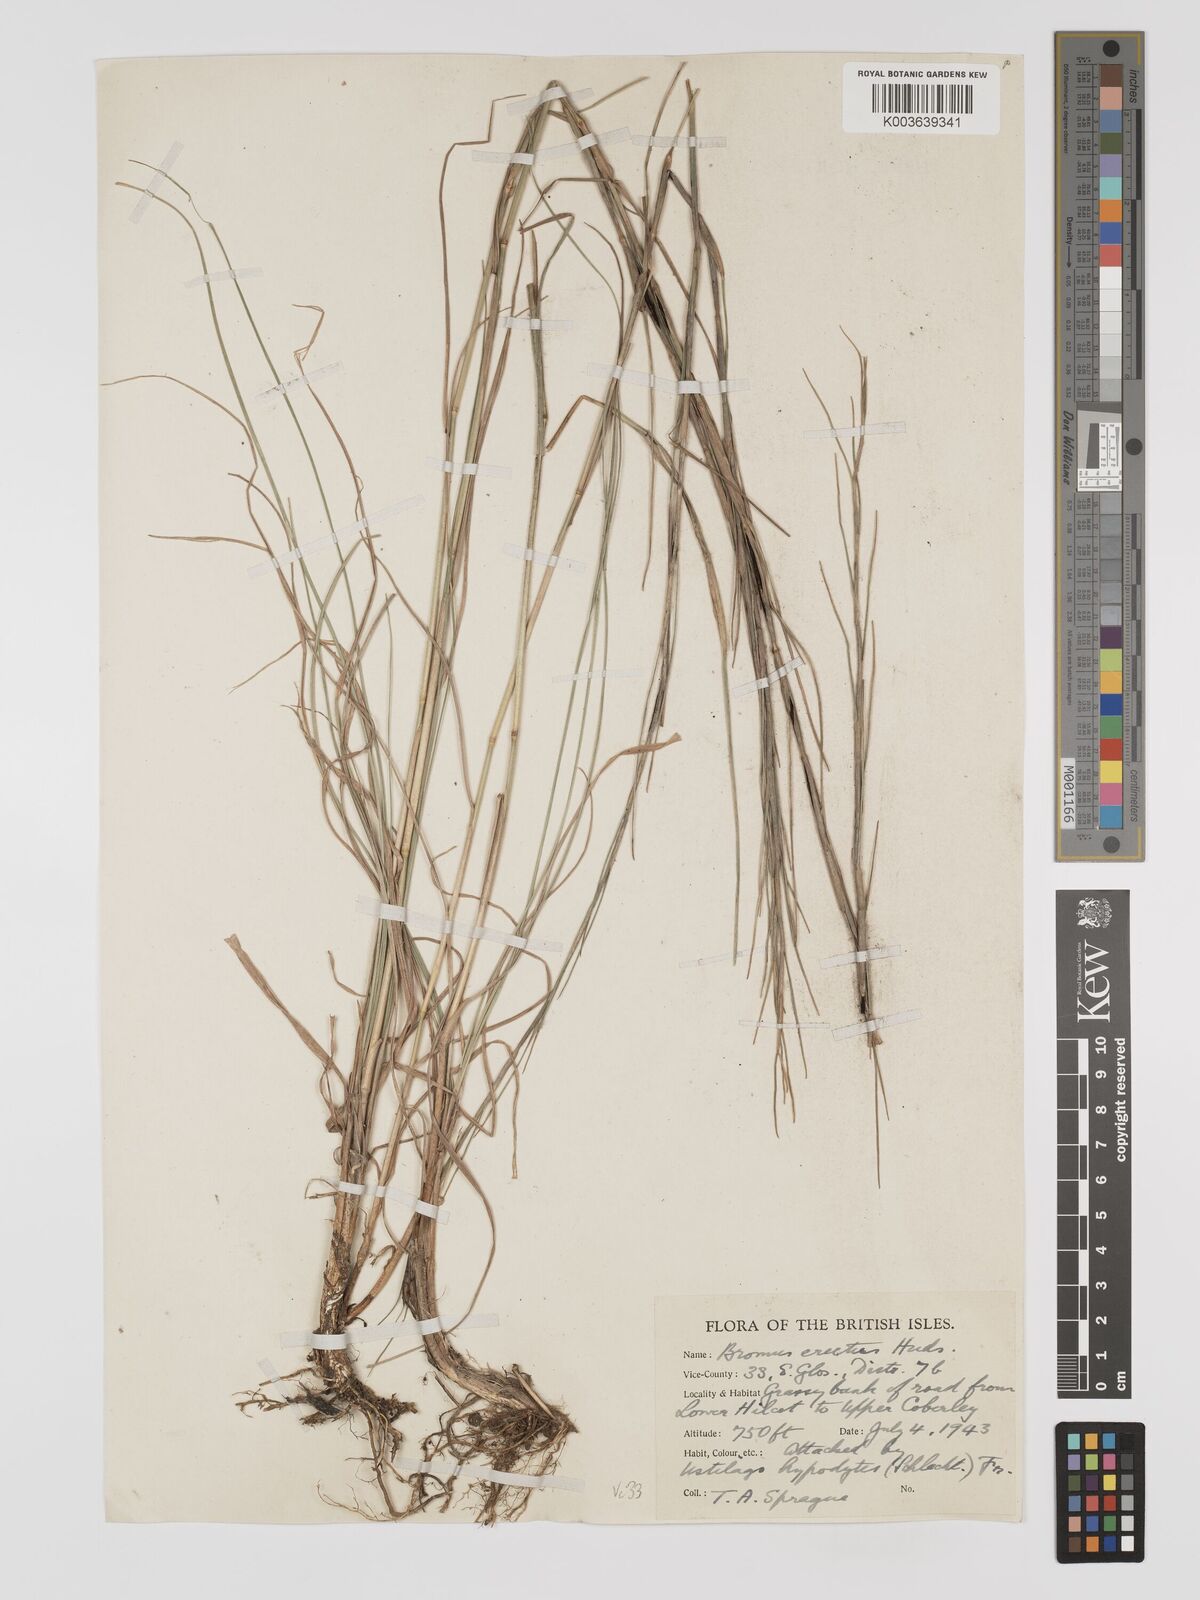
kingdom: Plantae
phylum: Tracheophyta
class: Liliopsida
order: Poales
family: Poaceae
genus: Bromus
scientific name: Bromus erectus
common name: Erect brome
